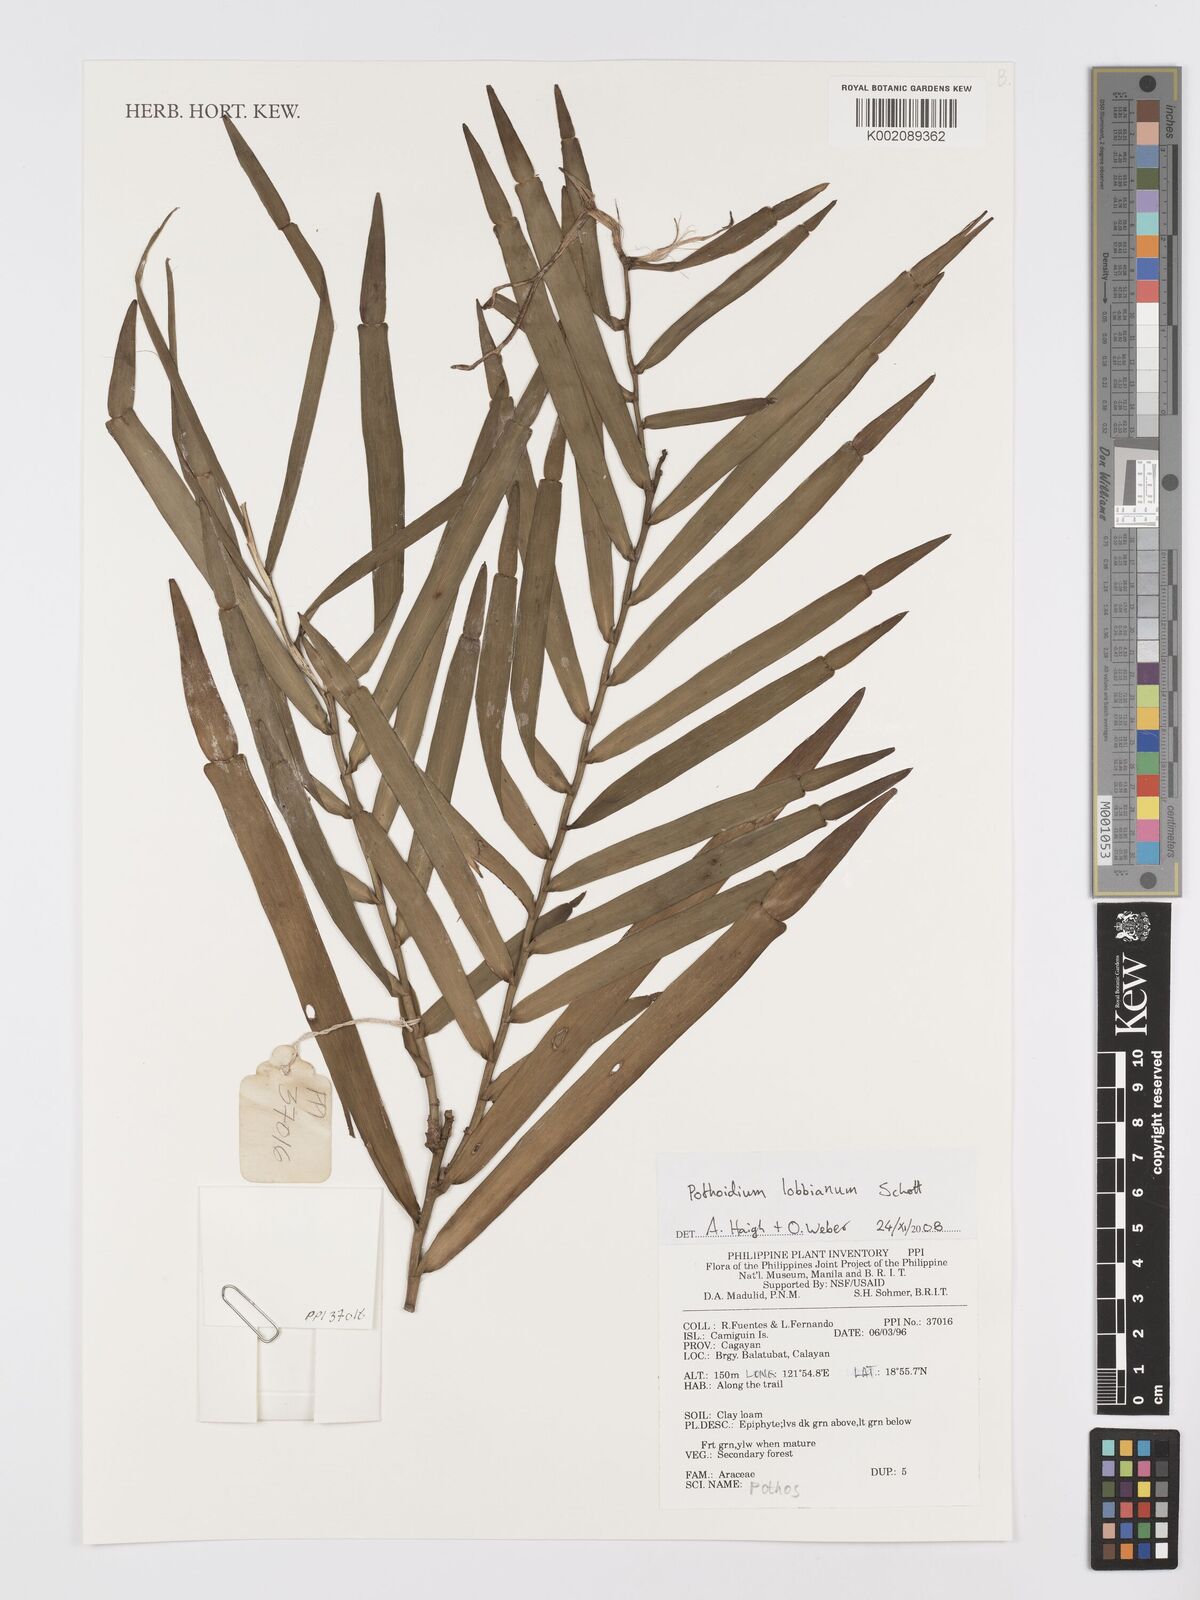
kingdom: Plantae
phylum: Tracheophyta
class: Liliopsida
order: Alismatales
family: Araceae
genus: Pothoidium
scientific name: Pothoidium lobbianum
